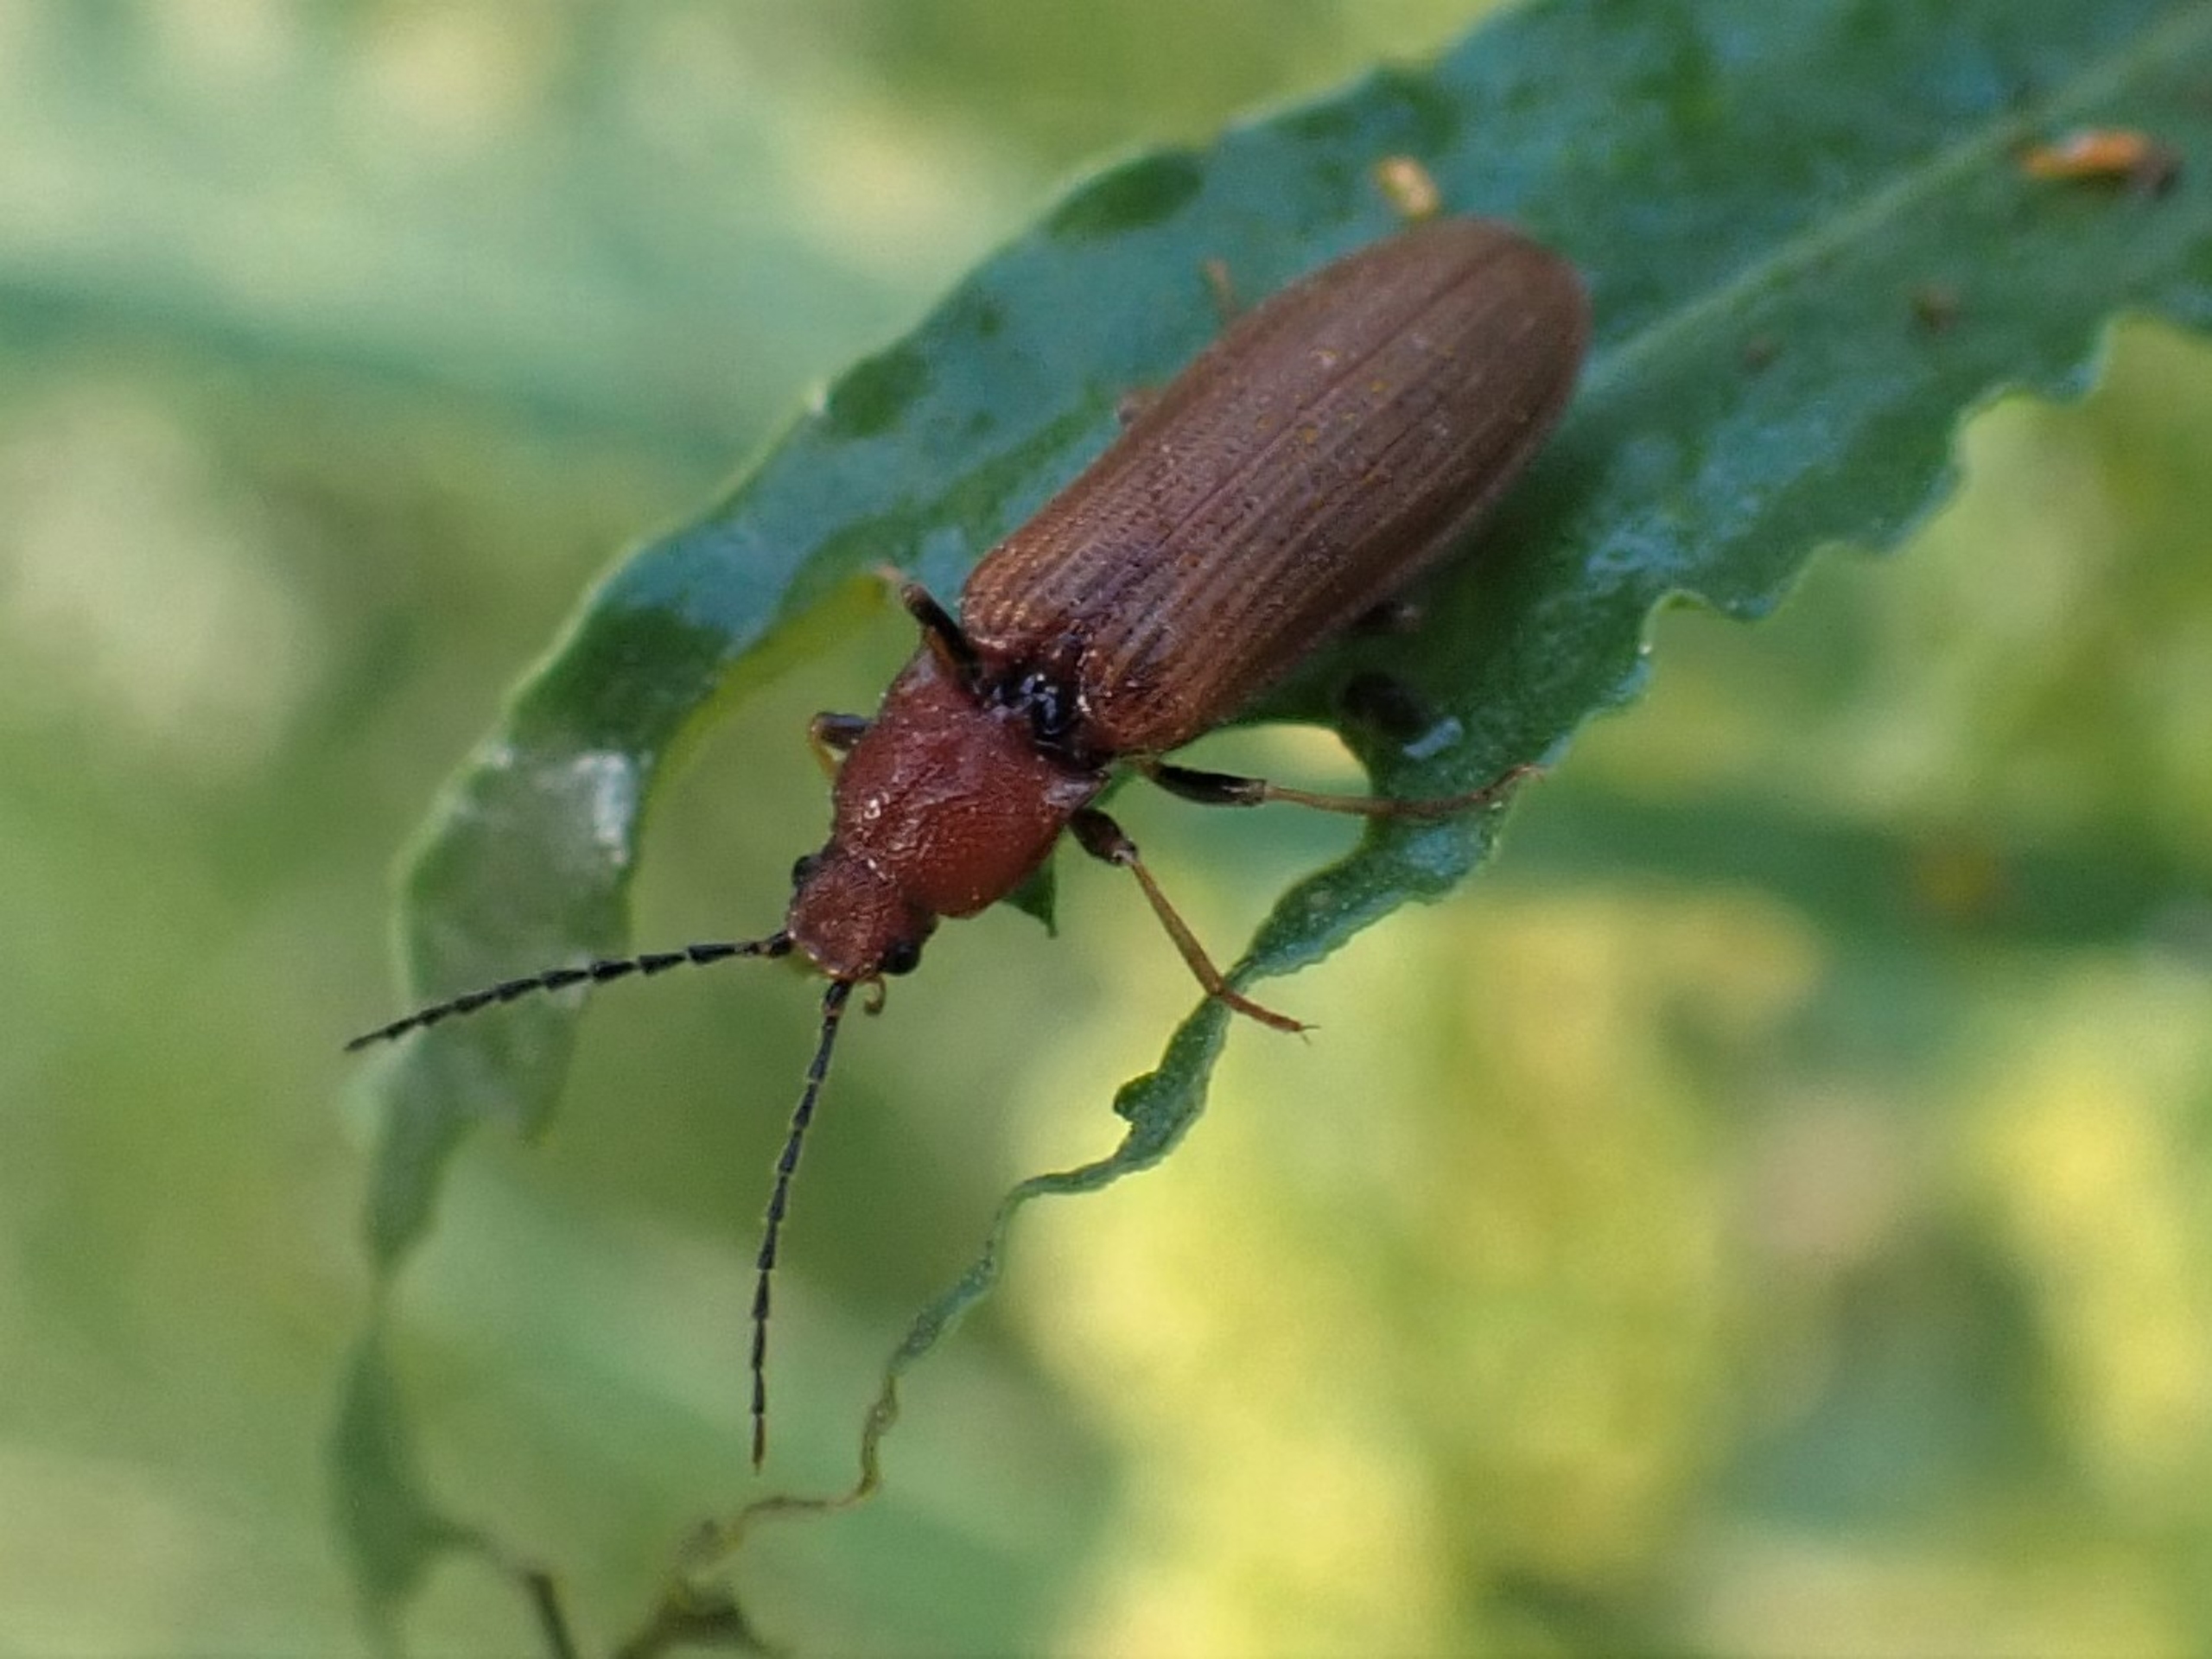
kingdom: Animalia
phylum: Arthropoda
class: Insecta
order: Coleoptera
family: Elateridae
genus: Denticollis
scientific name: Denticollis linearis
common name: Almindelig sirsmælder
